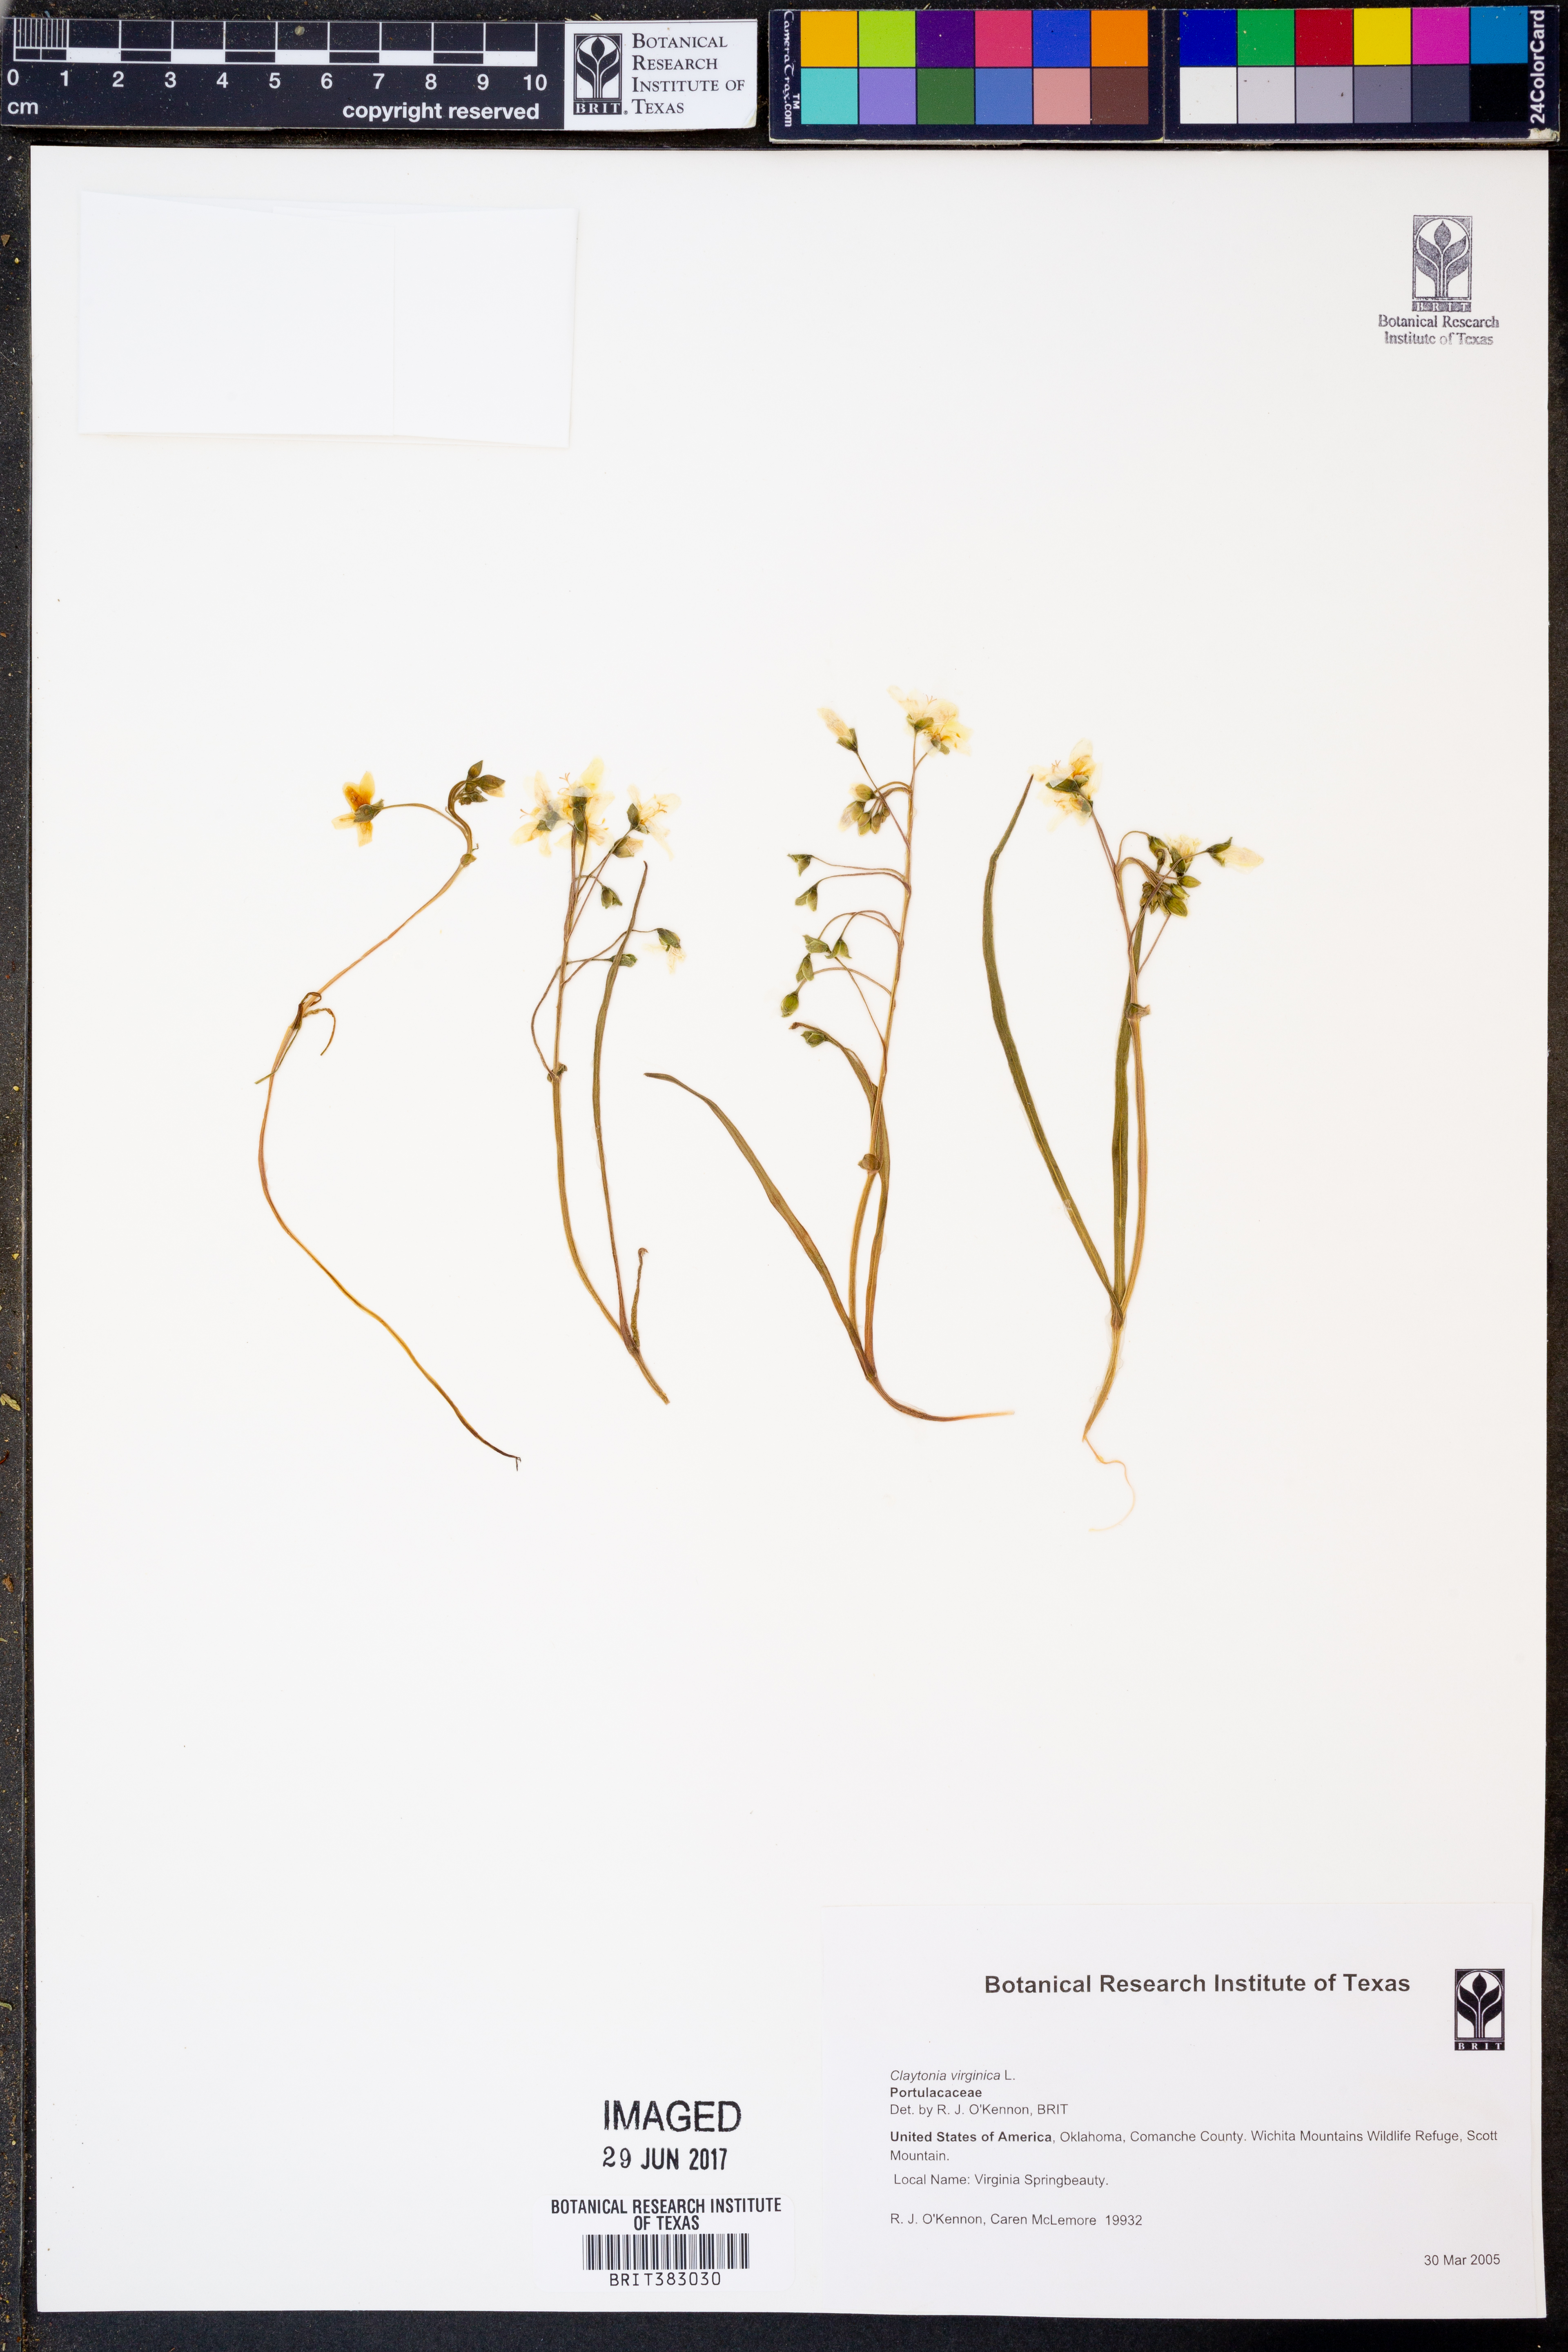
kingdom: Plantae
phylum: Tracheophyta
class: Magnoliopsida
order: Caryophyllales
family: Montiaceae
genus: Claytonia
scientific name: Claytonia virginica
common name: Virginia springbeauty
